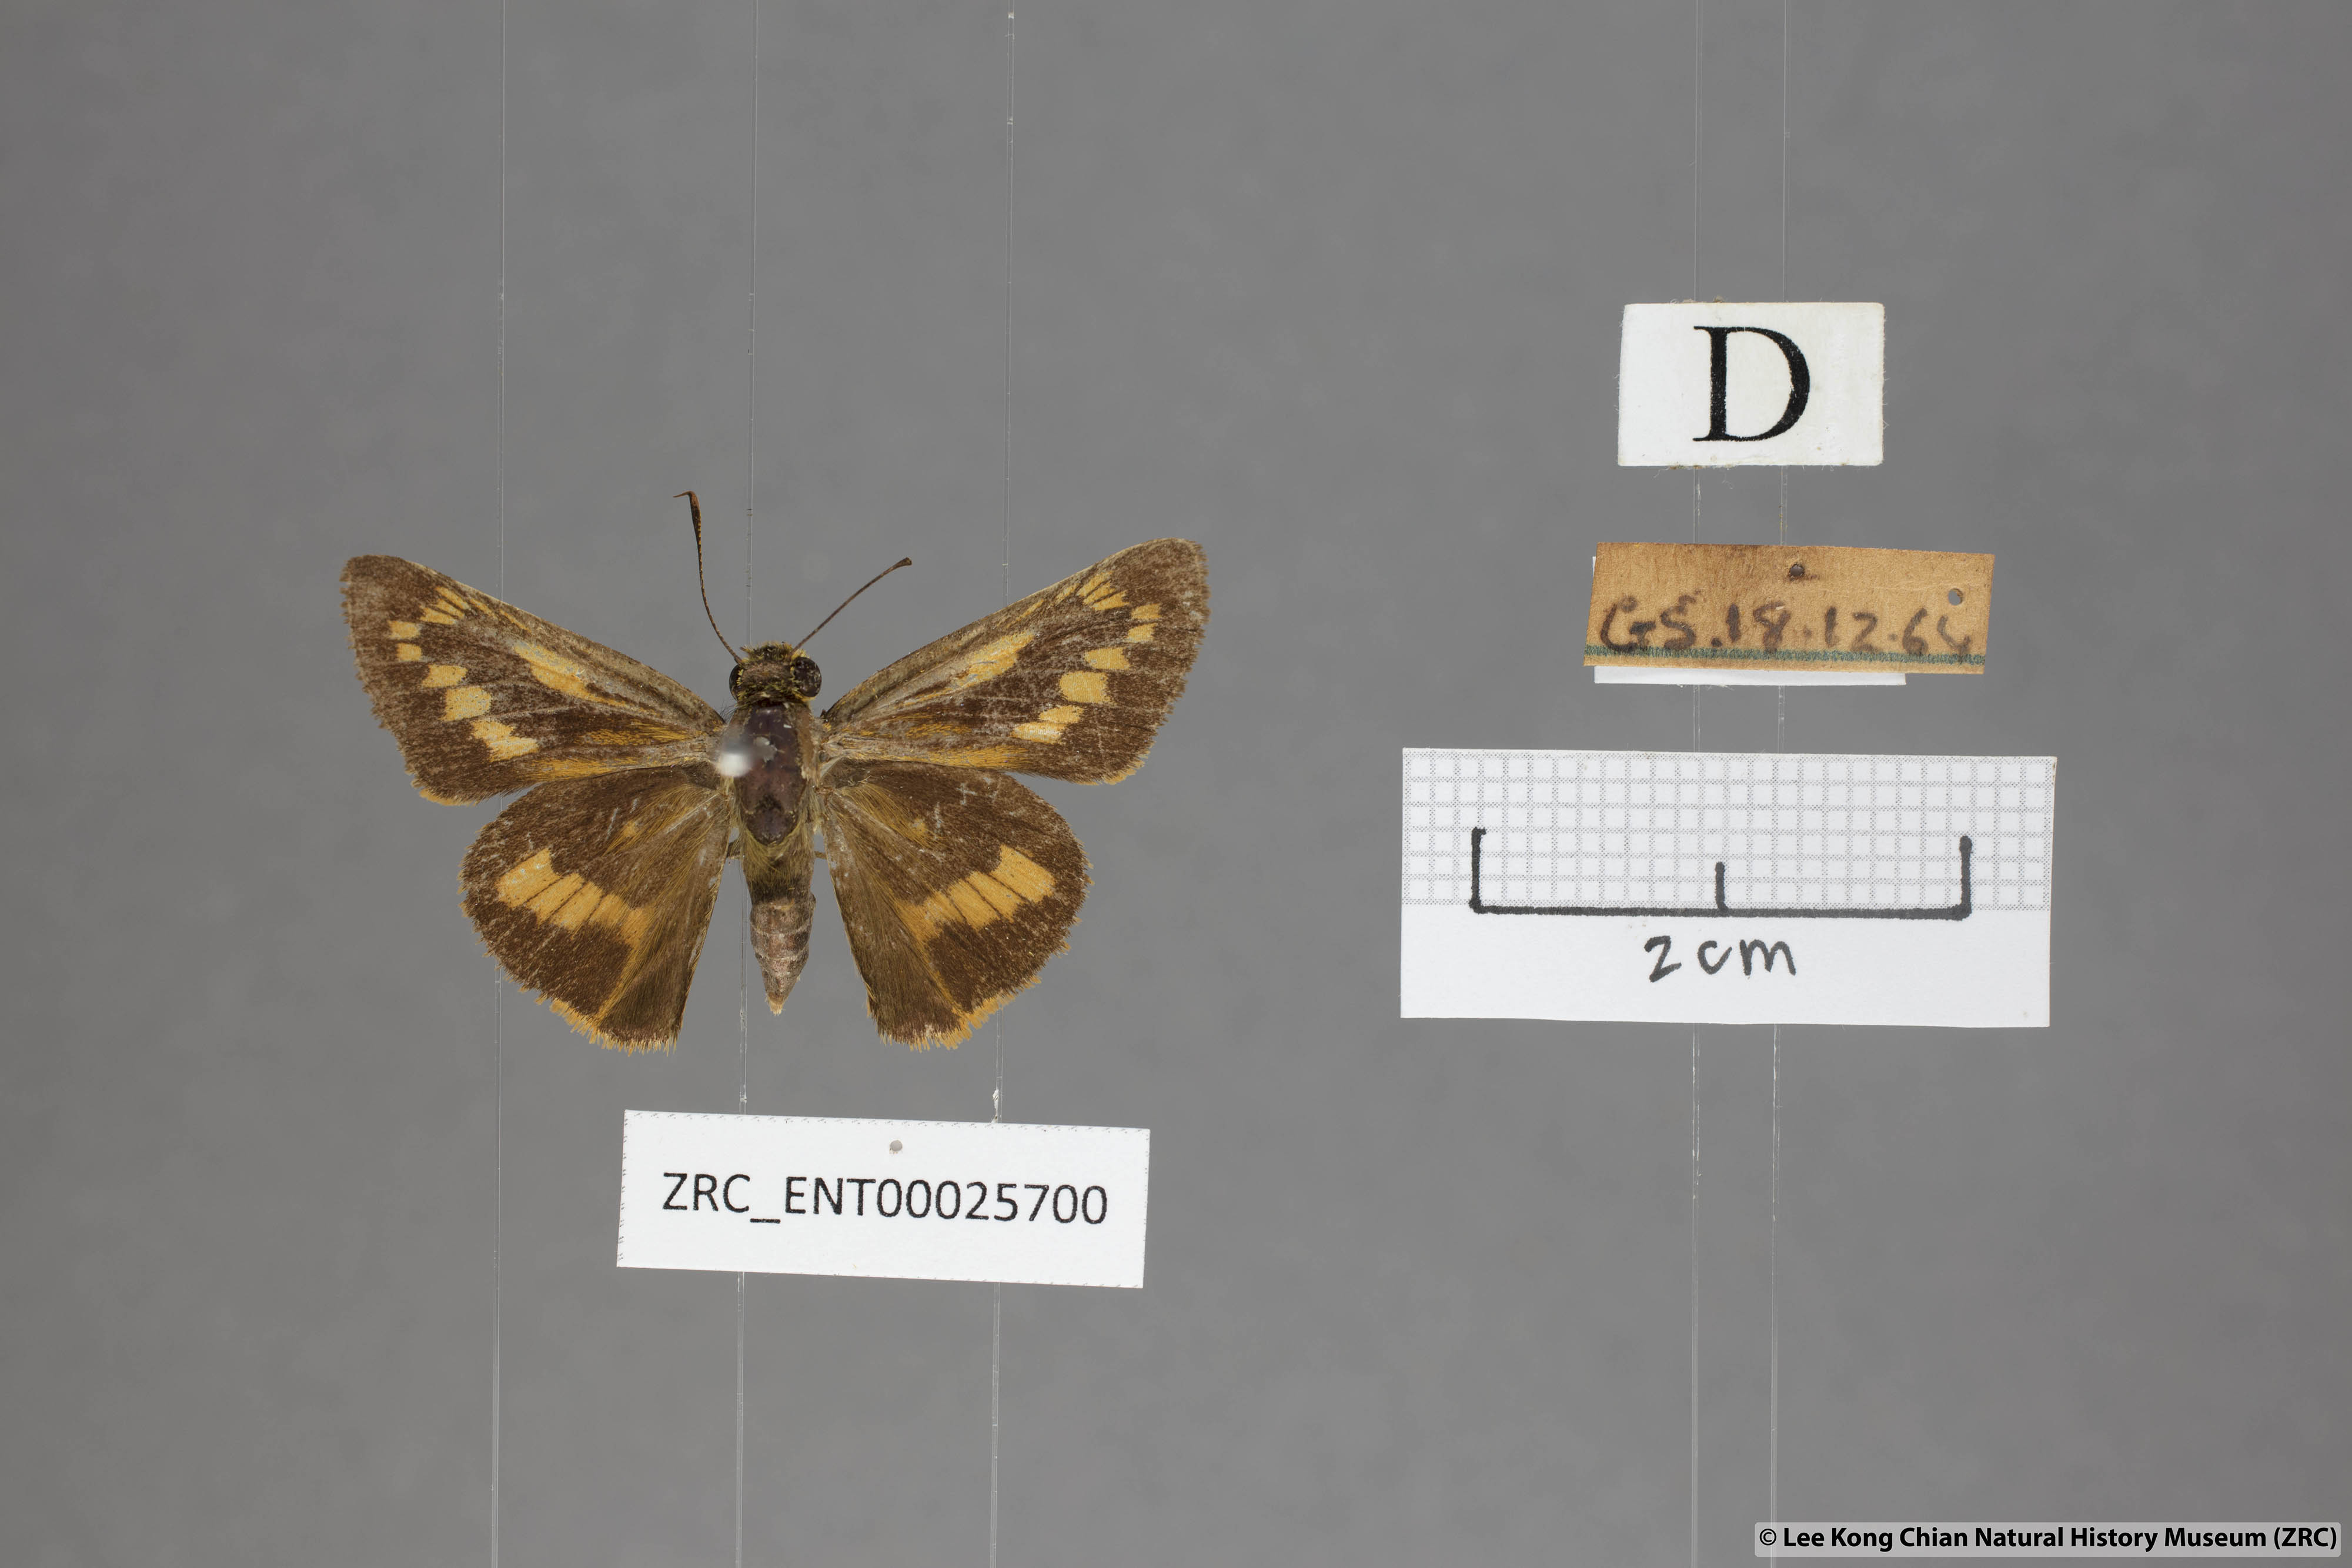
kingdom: Animalia
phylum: Arthropoda
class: Insecta
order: Lepidoptera
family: Hesperiidae
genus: Telicota
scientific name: Telicota ohara
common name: Dark palm dart
